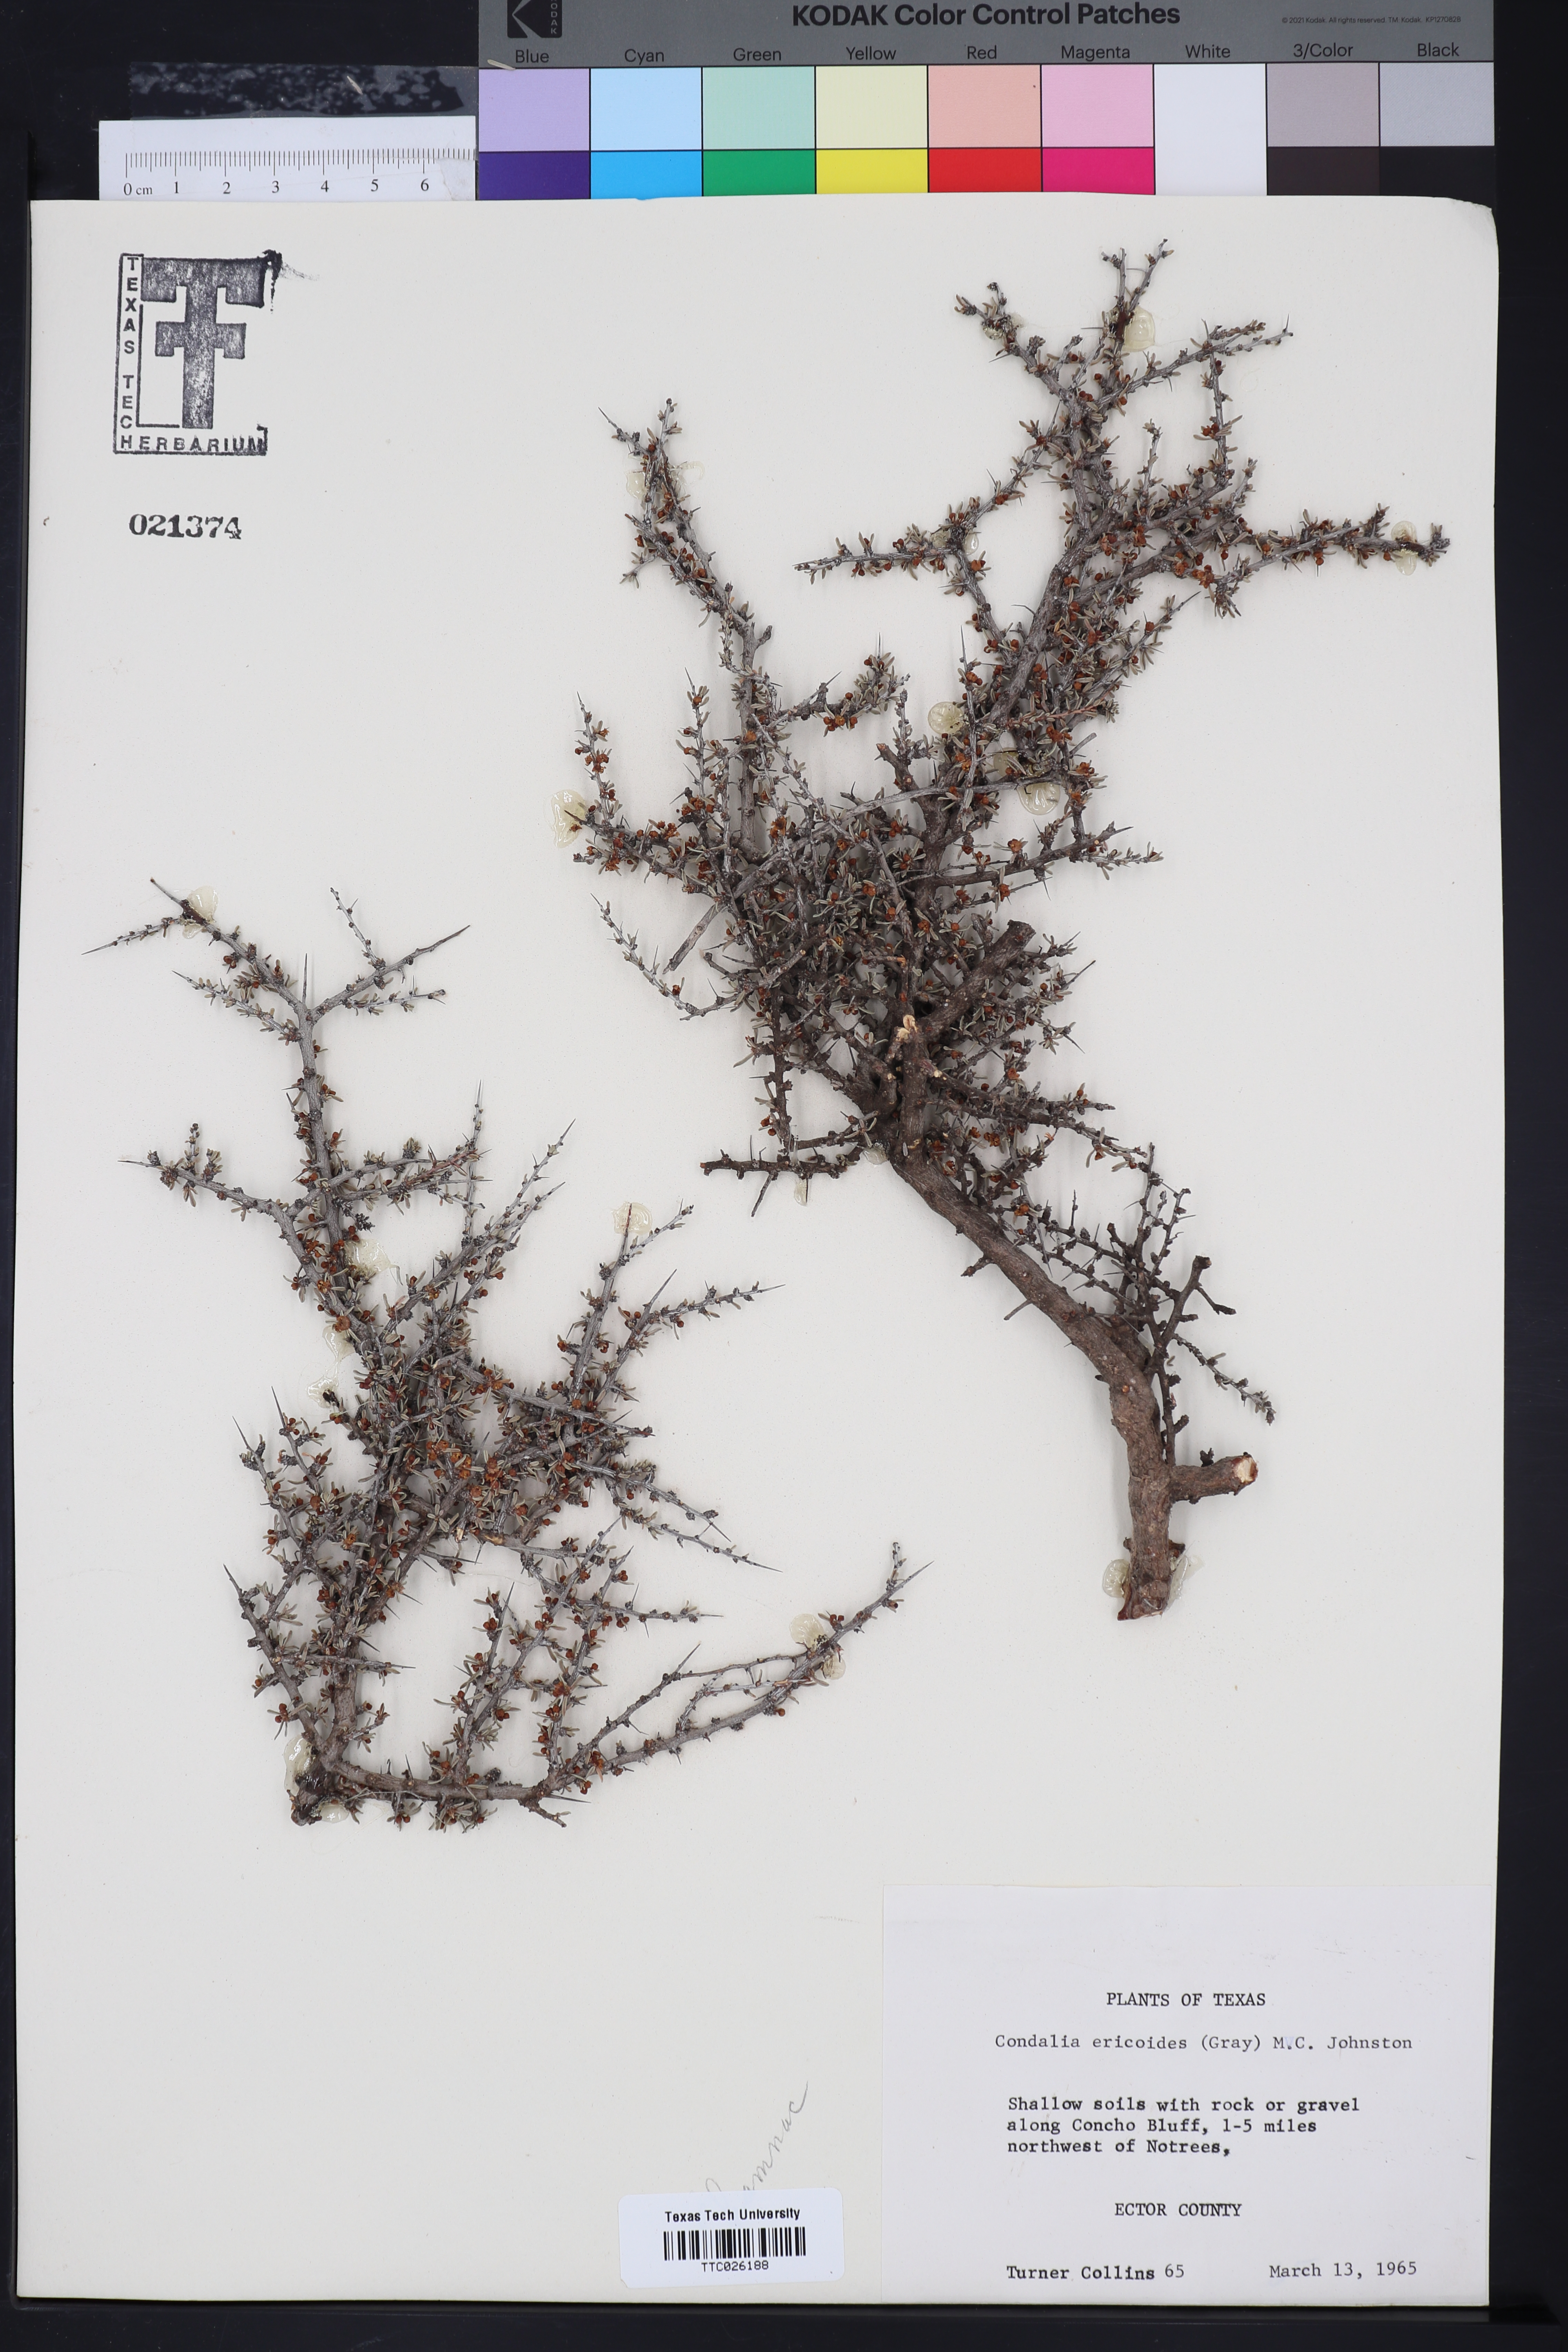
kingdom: Plantae
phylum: Tracheophyta
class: Magnoliopsida
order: Rosales
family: Rhamnaceae
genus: Condalia
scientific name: Condalia ericoides
